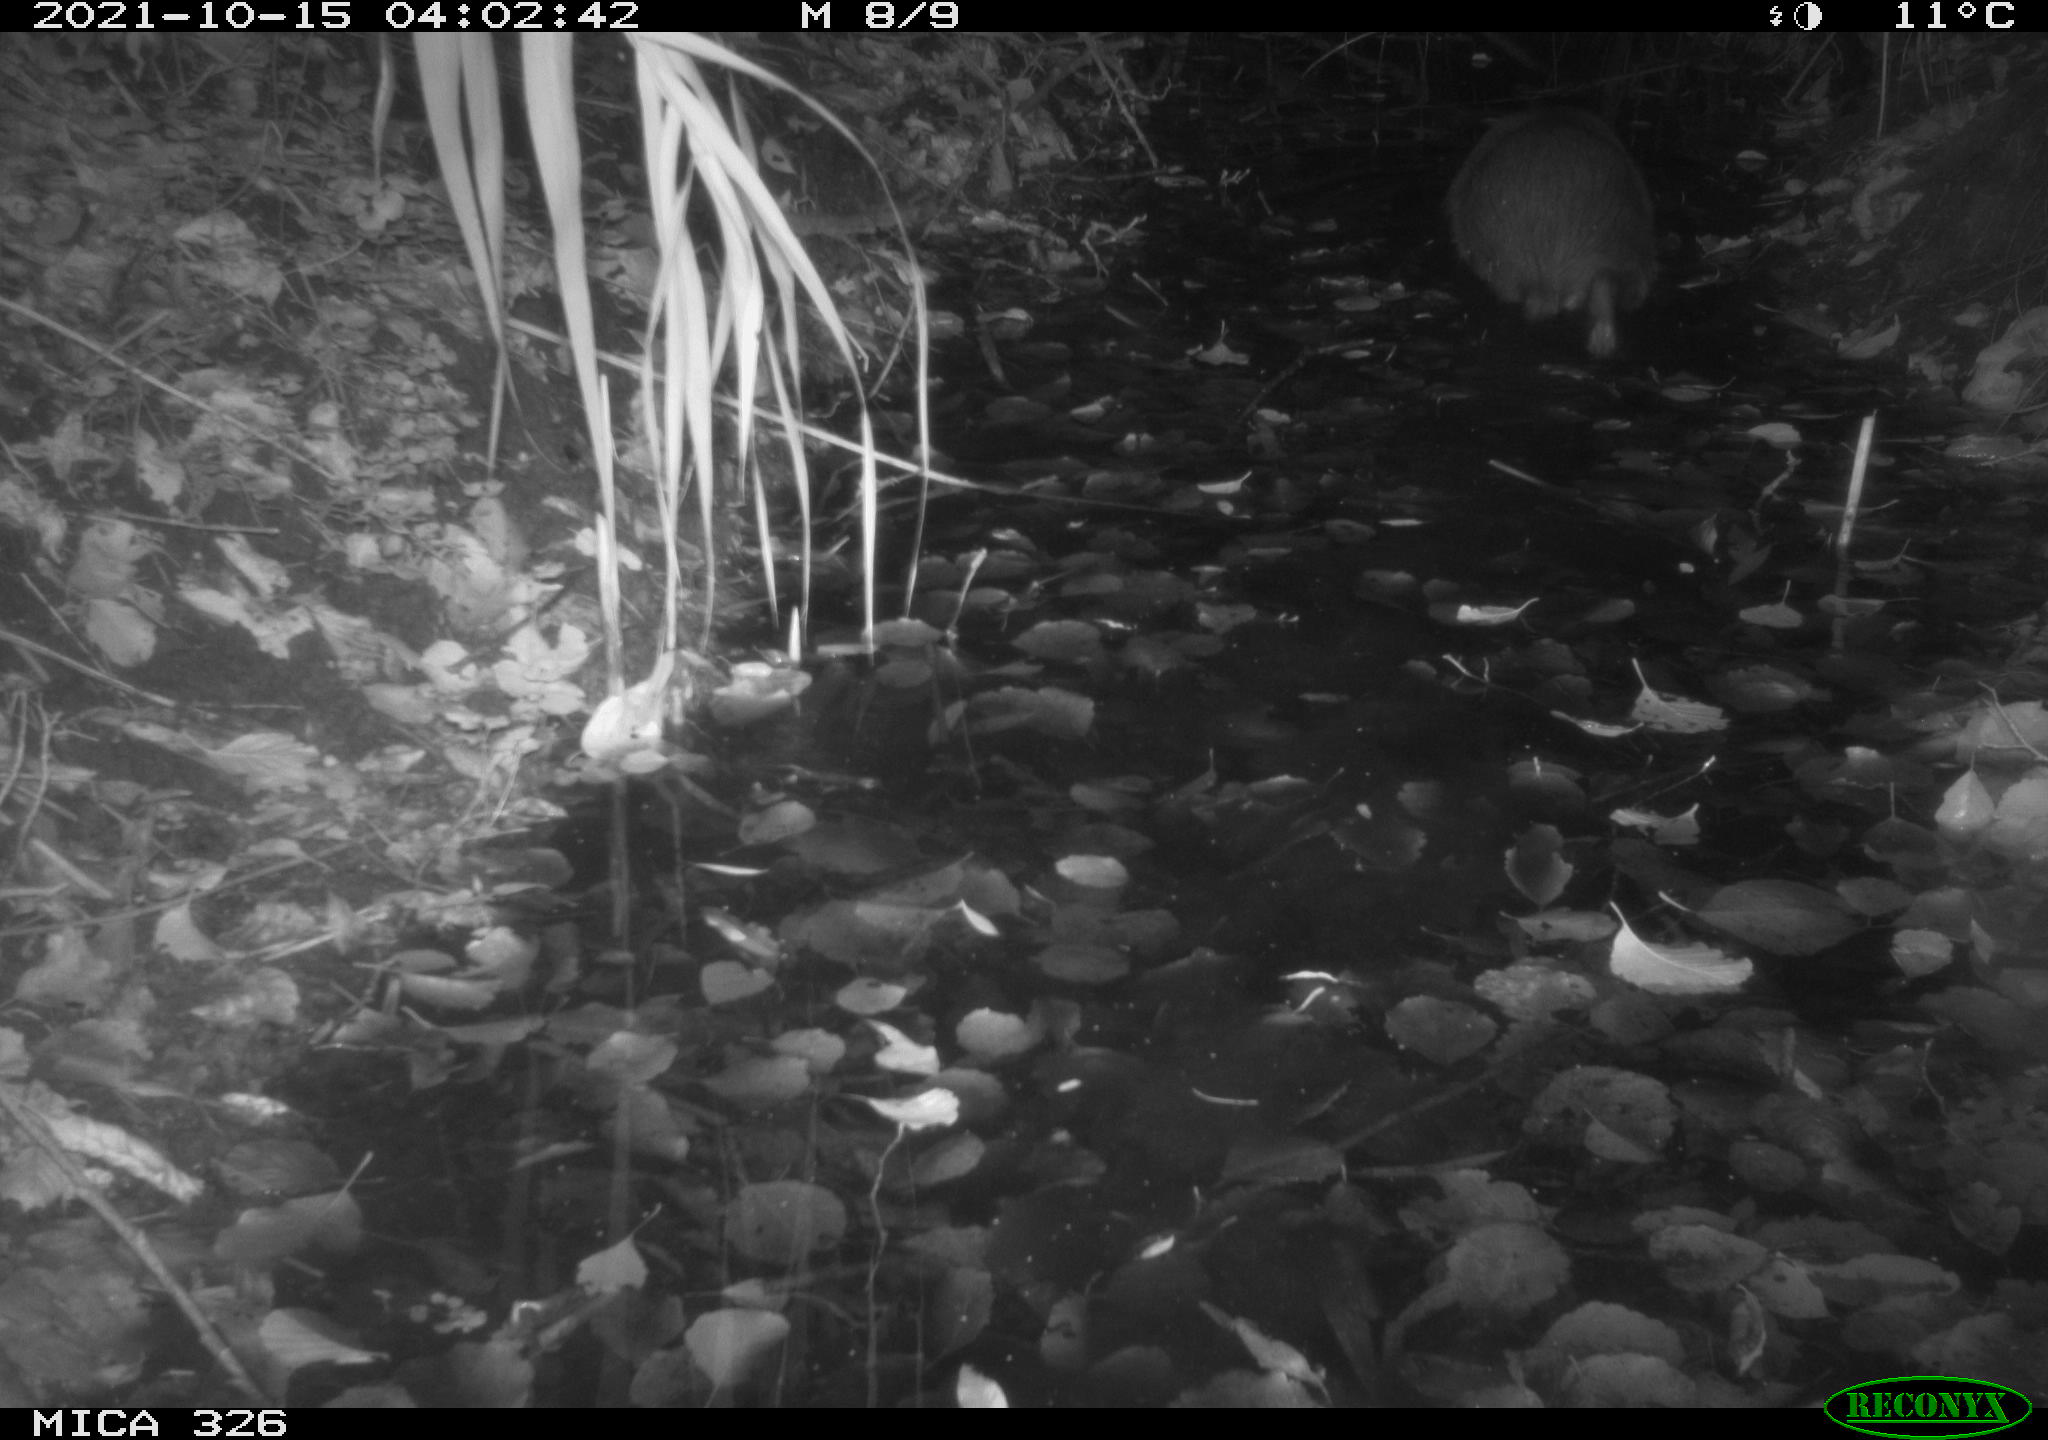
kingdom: Animalia
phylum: Chordata
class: Mammalia
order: Rodentia
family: Myocastoridae
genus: Myocastor
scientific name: Myocastor coypus
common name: Coypu
